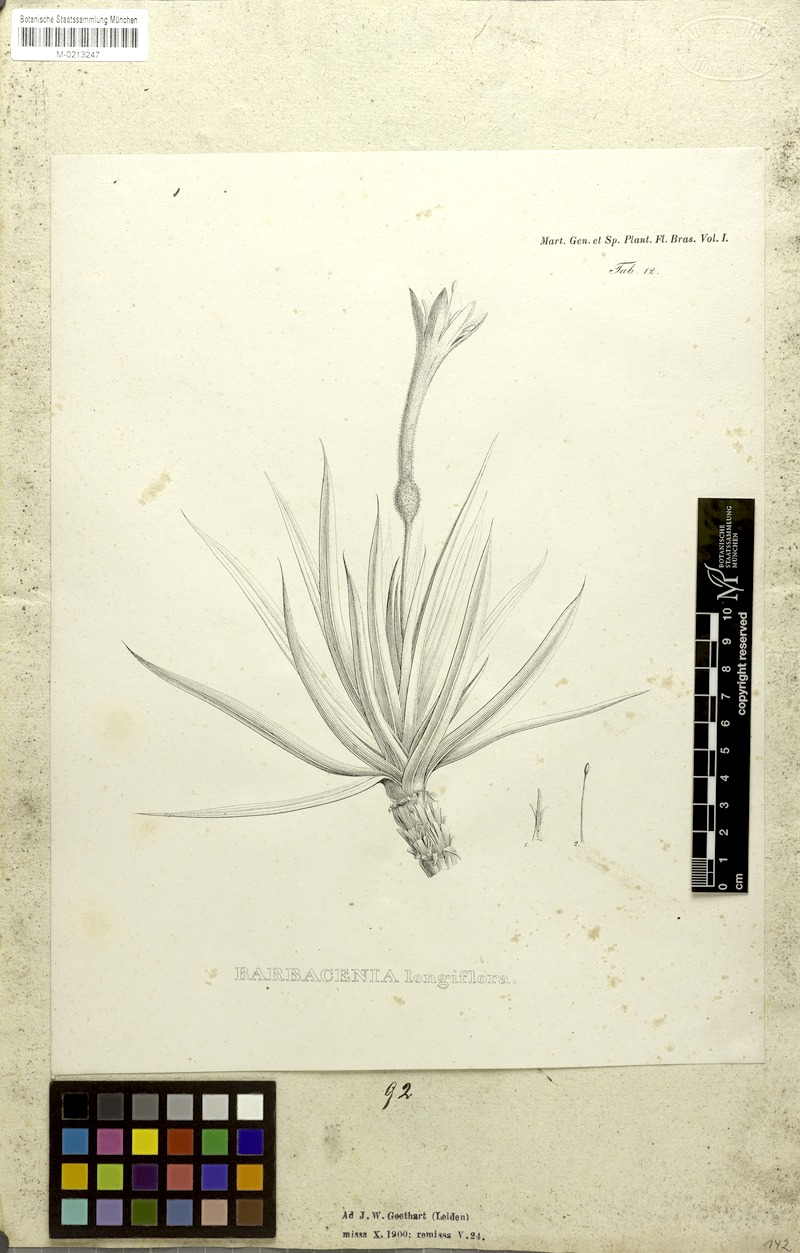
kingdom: Plantae
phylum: Tracheophyta
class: Liliopsida
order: Pandanales
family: Velloziaceae
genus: Barbacenia
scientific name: Barbacenia longiflora
